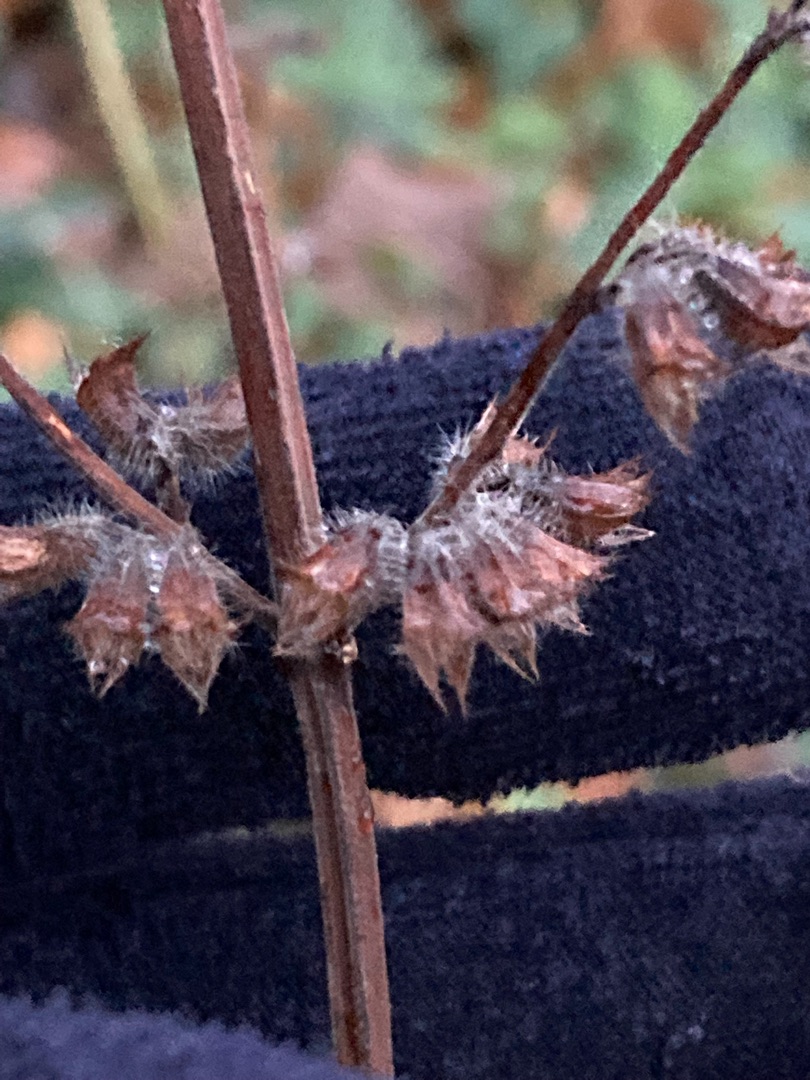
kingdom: Plantae
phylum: Tracheophyta
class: Magnoliopsida
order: Lamiales
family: Lamiaceae
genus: Melissa
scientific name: Melissa officinalis
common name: Citronmelisse
